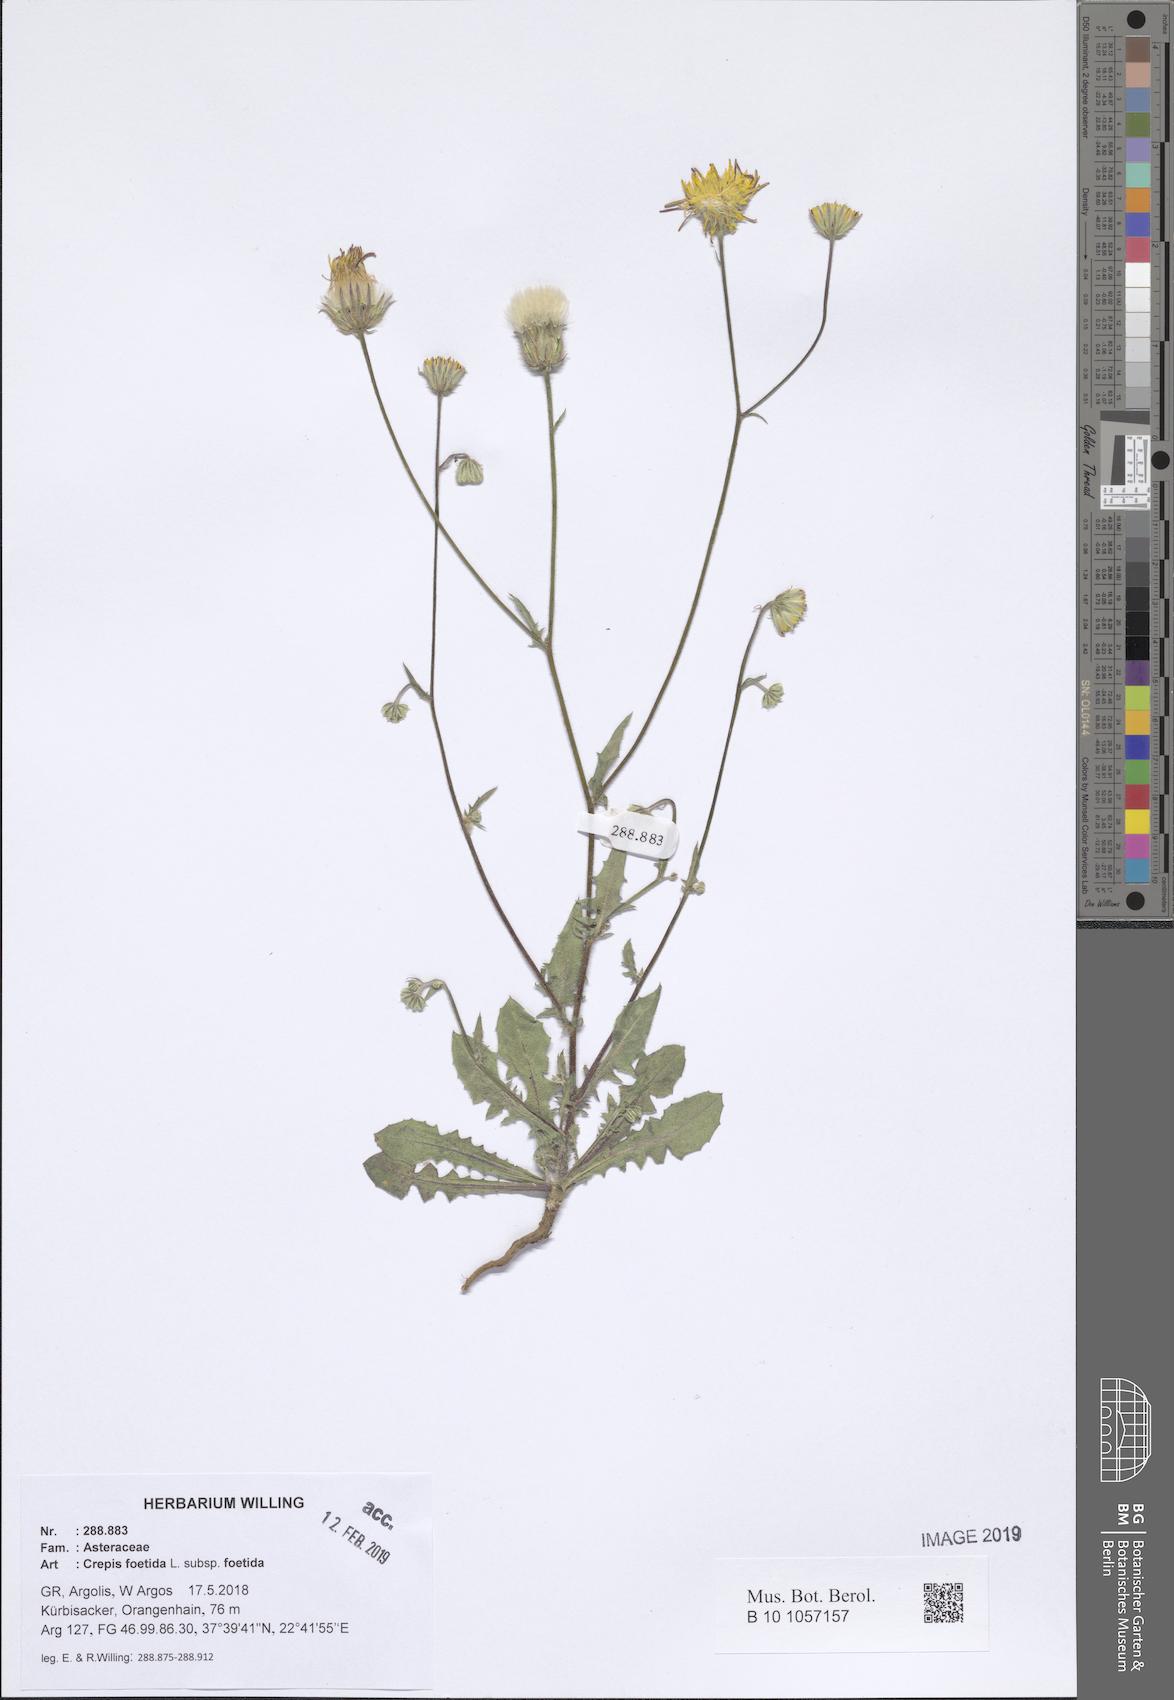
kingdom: Plantae
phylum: Tracheophyta
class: Magnoliopsida
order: Asterales
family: Asteraceae
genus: Crepis
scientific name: Crepis foetida
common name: Stinking hawk's-beard
